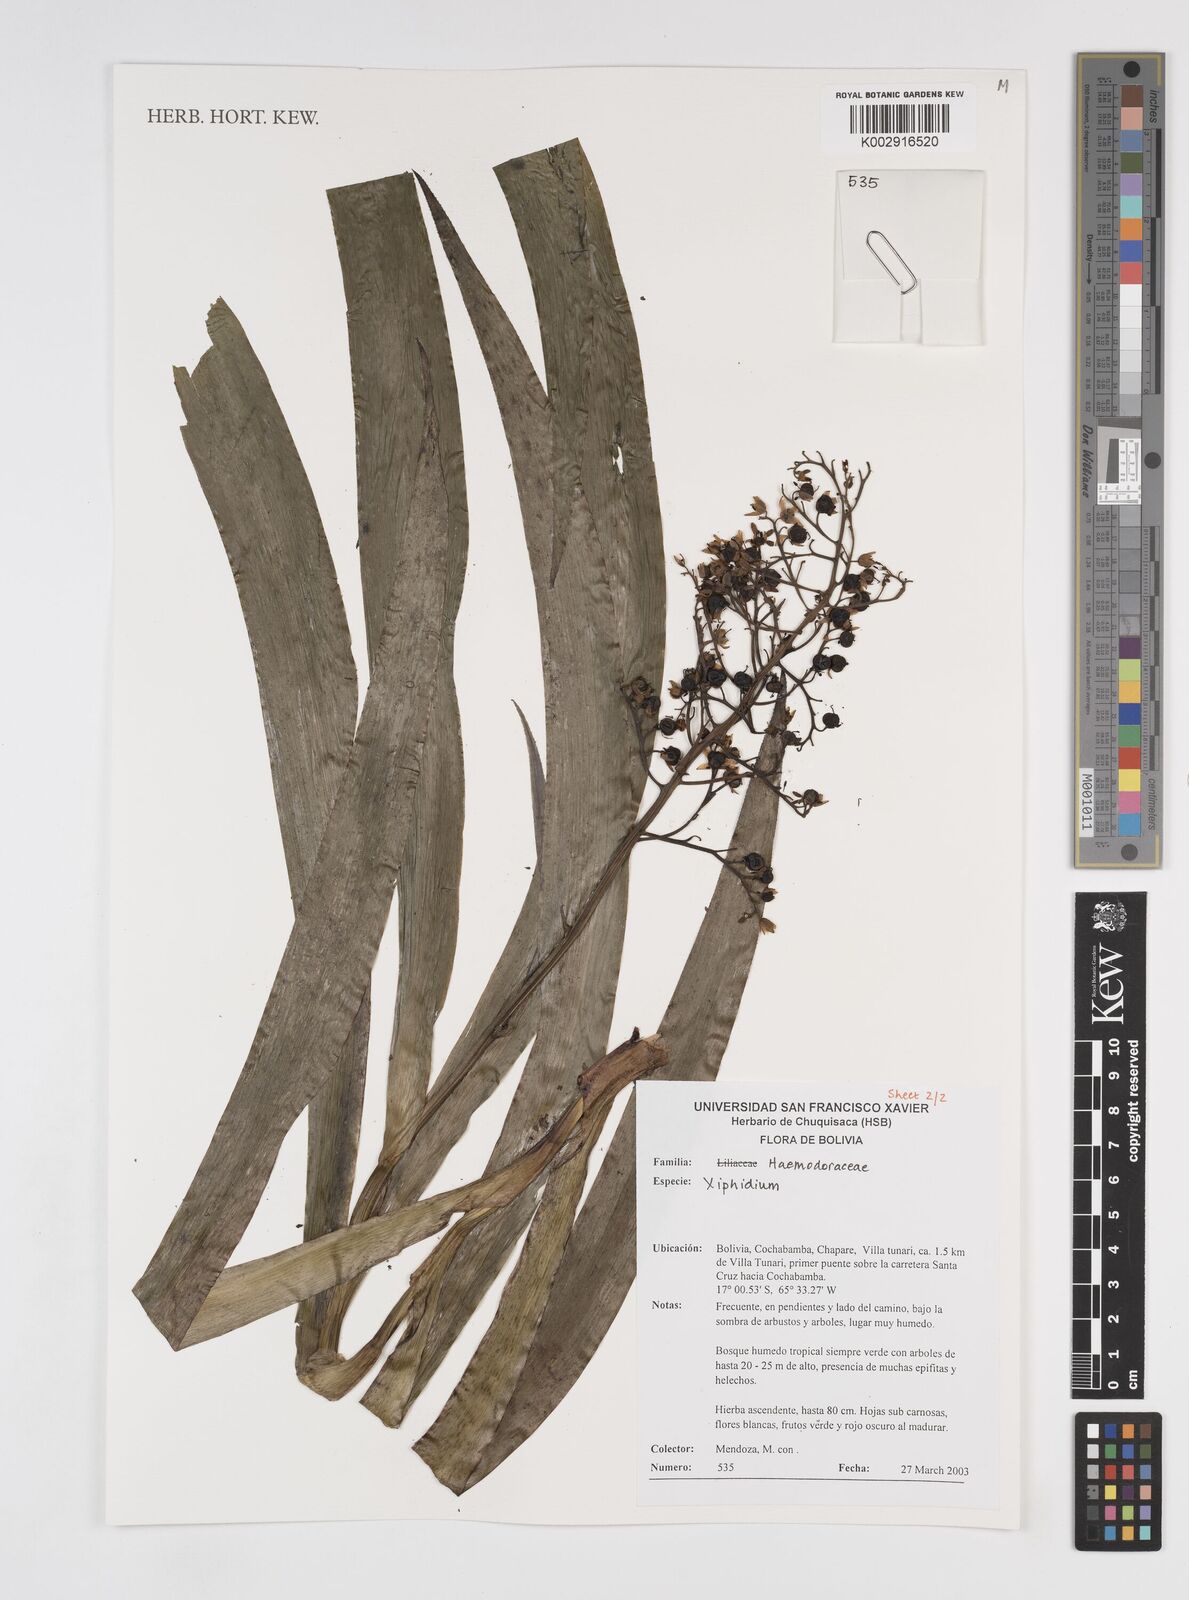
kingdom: Plantae
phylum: Tracheophyta
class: Liliopsida
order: Commelinales
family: Haemodoraceae
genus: Xiphidium
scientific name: Xiphidium caeruleum
